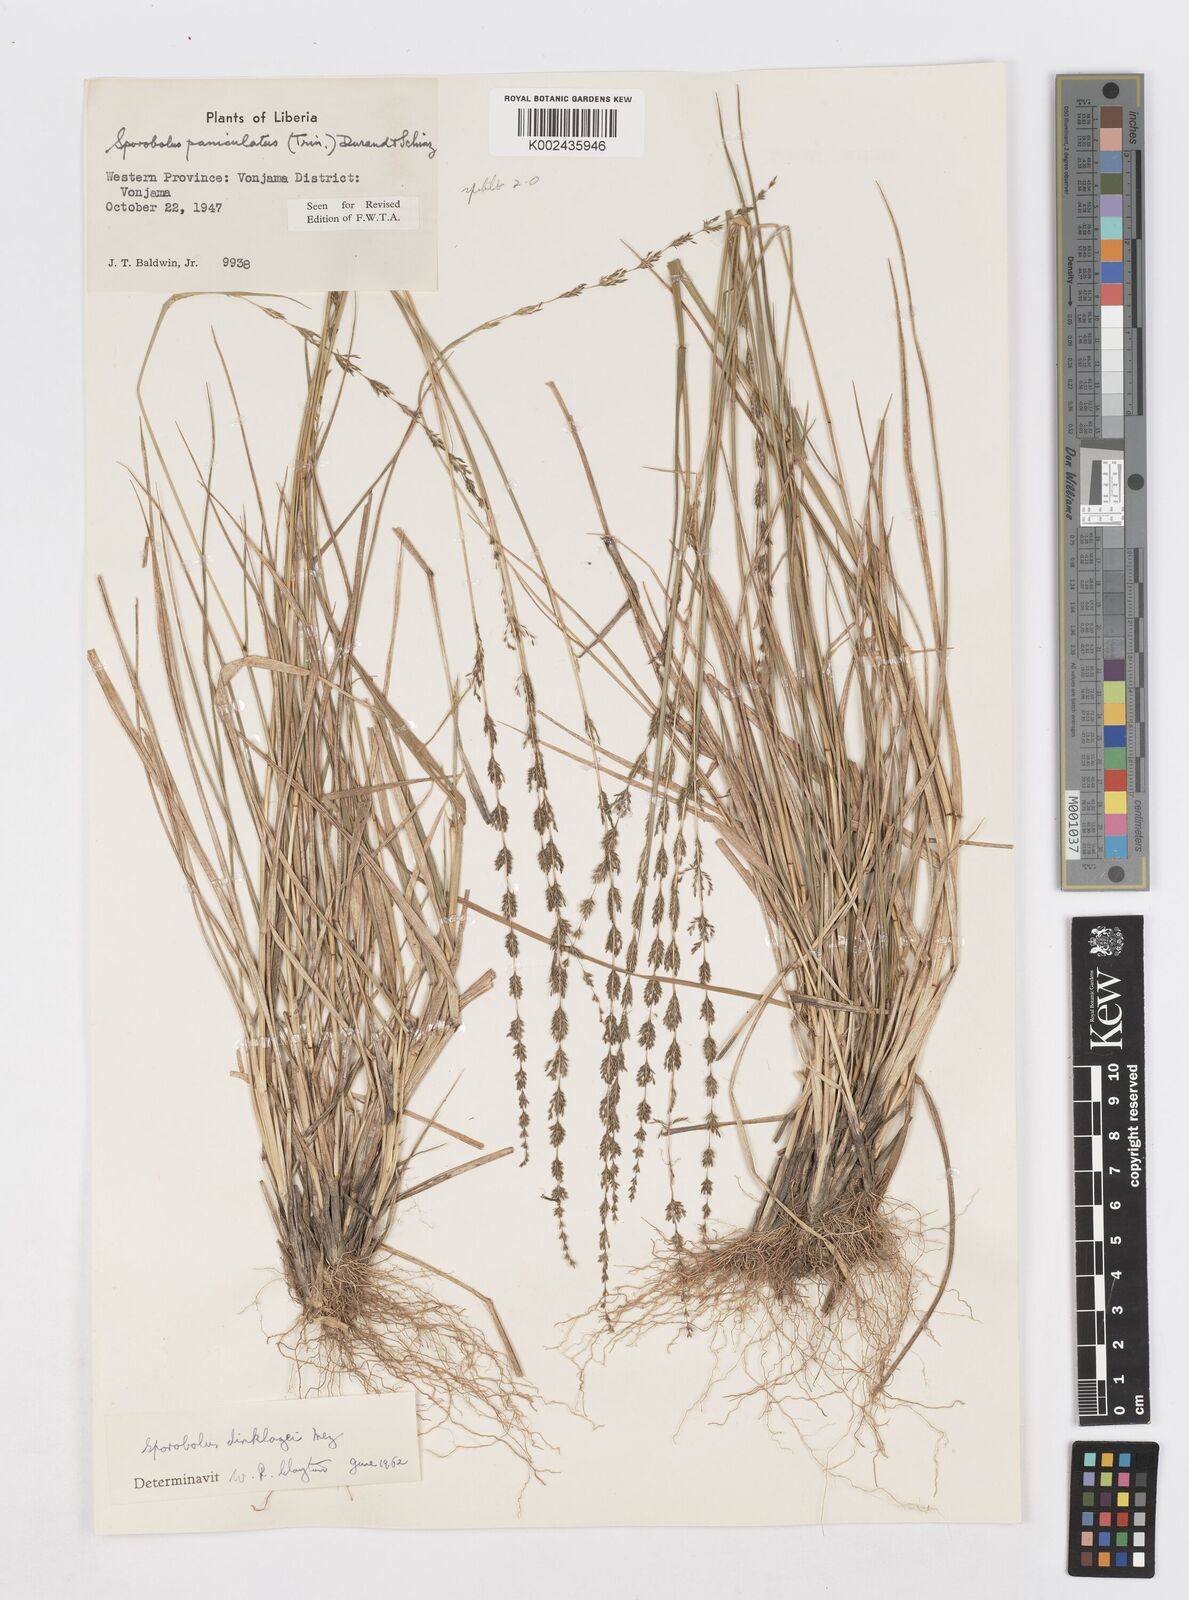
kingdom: Plantae
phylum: Tracheophyta
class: Liliopsida
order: Poales
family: Poaceae
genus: Sporobolus
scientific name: Sporobolus dinklagei
